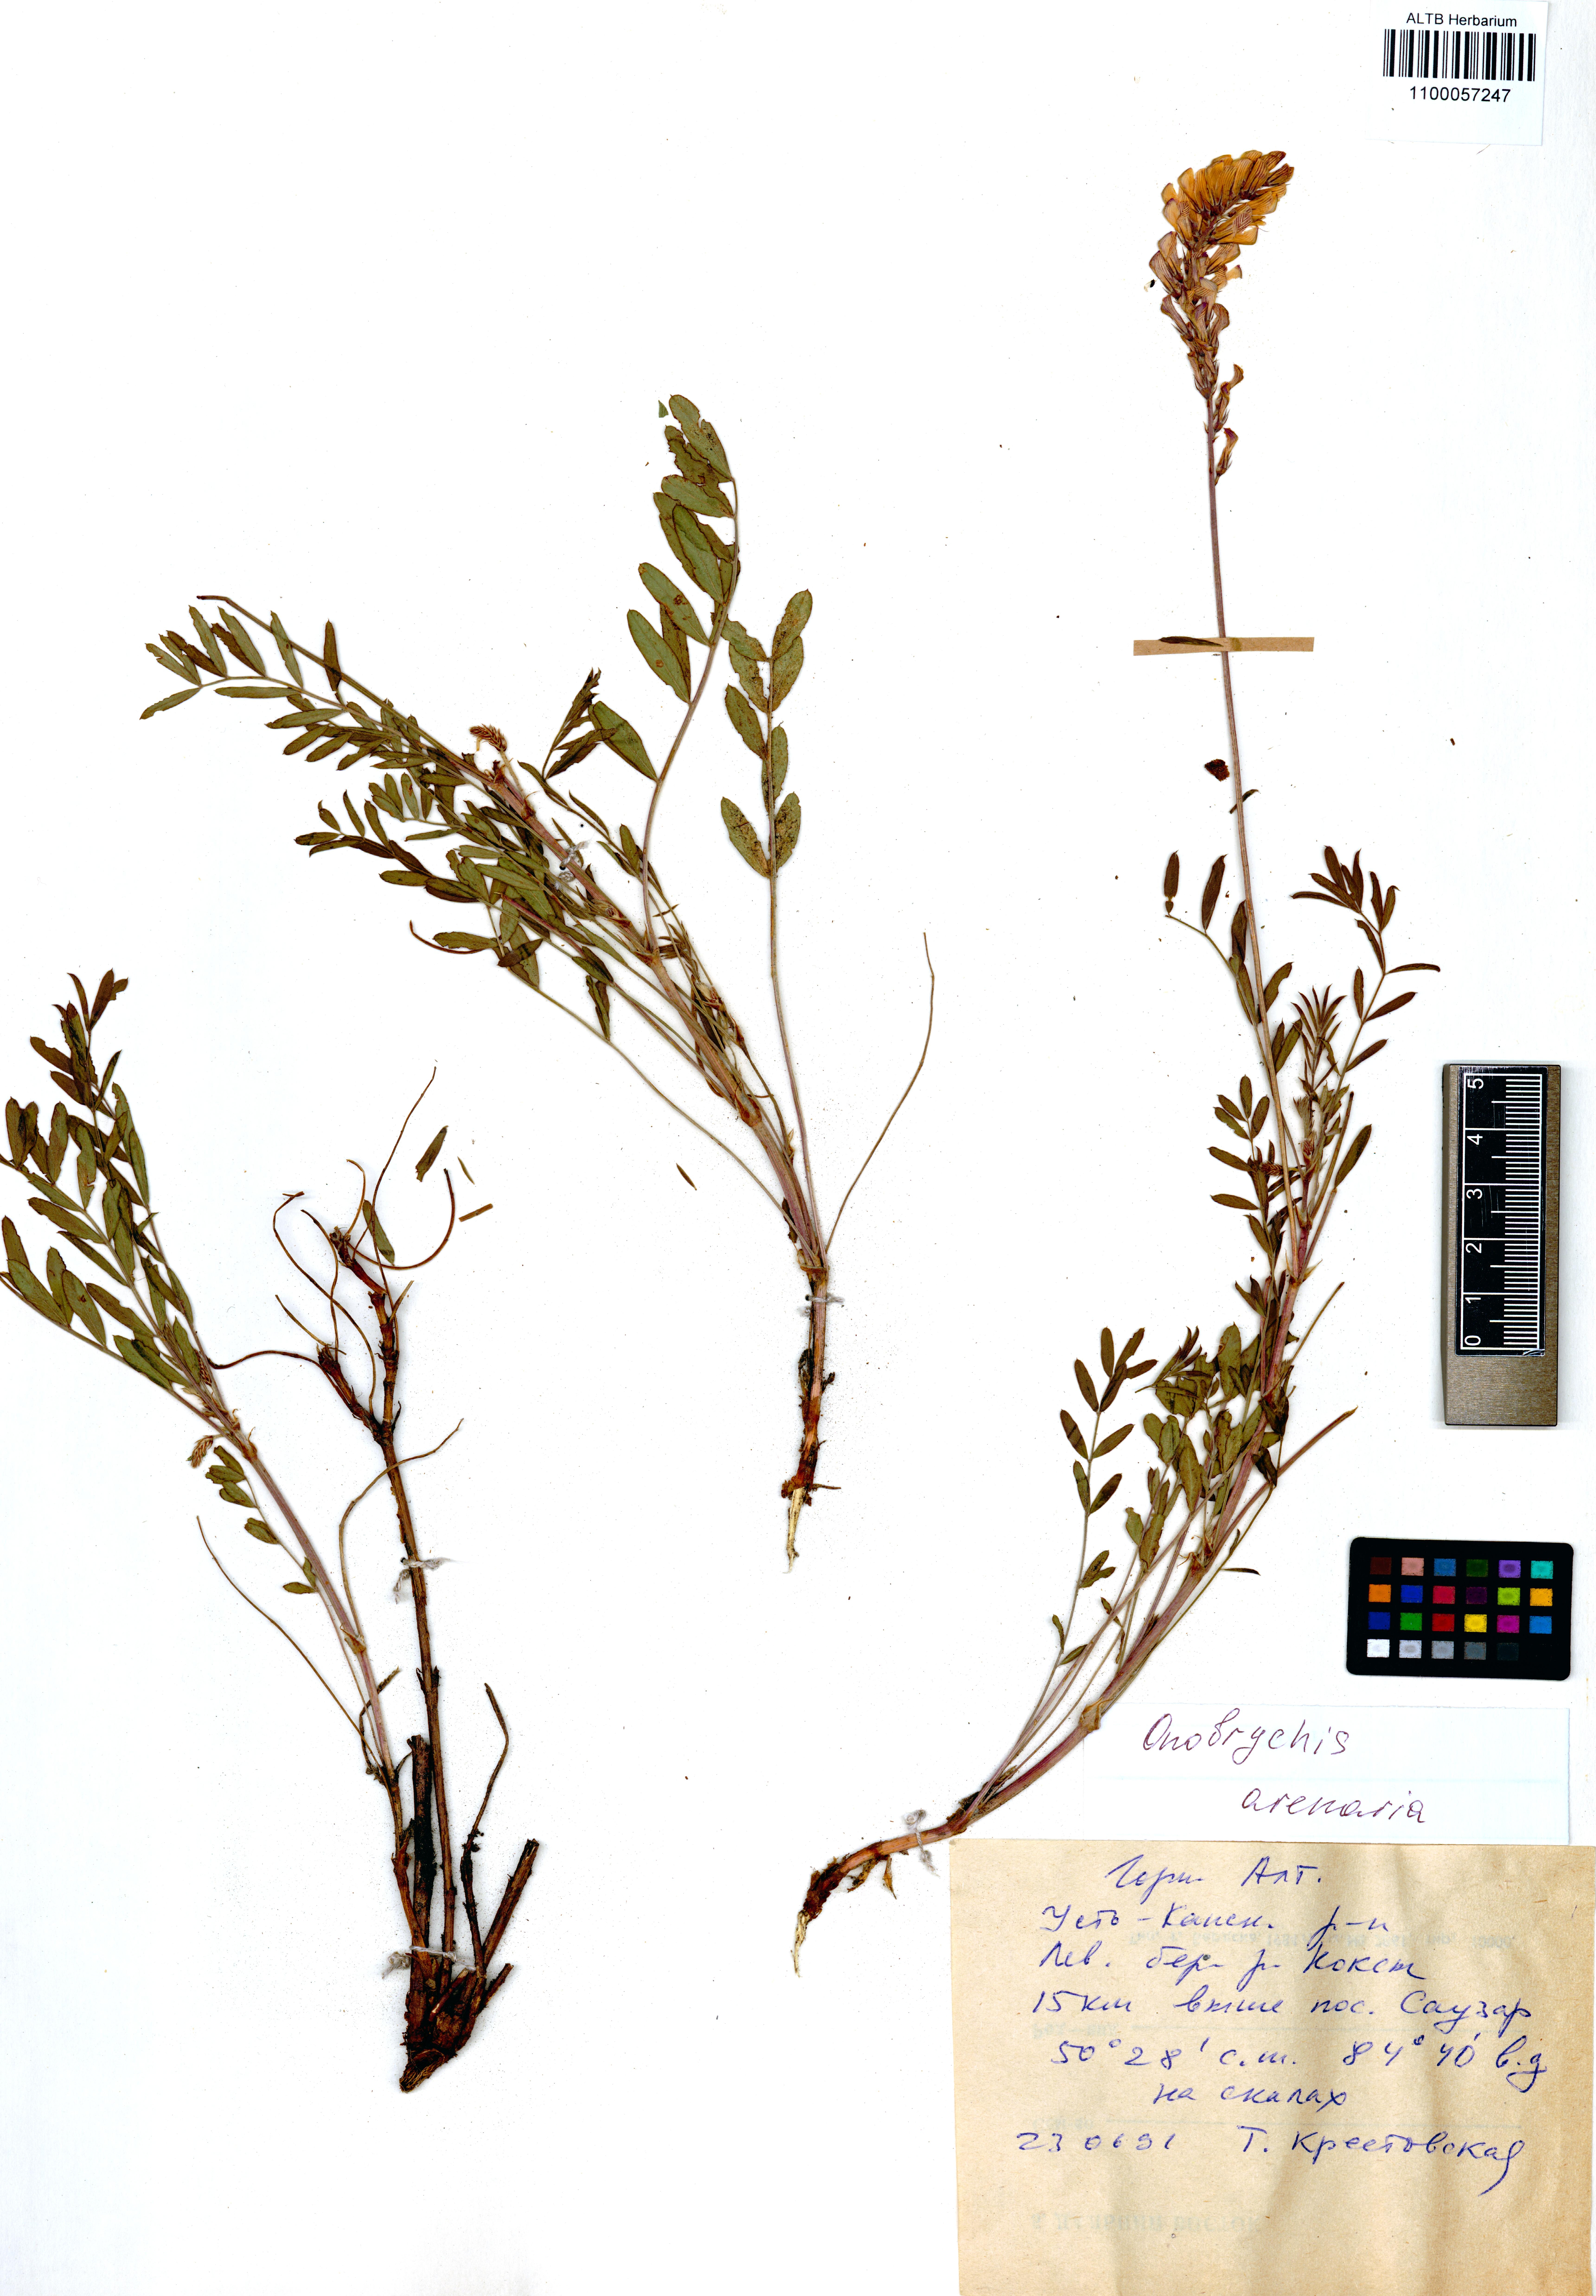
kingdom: Plantae
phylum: Tracheophyta
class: Magnoliopsida
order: Fabales
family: Fabaceae
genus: Onobrychis
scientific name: Onobrychis arenaria
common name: Sand esparcet
